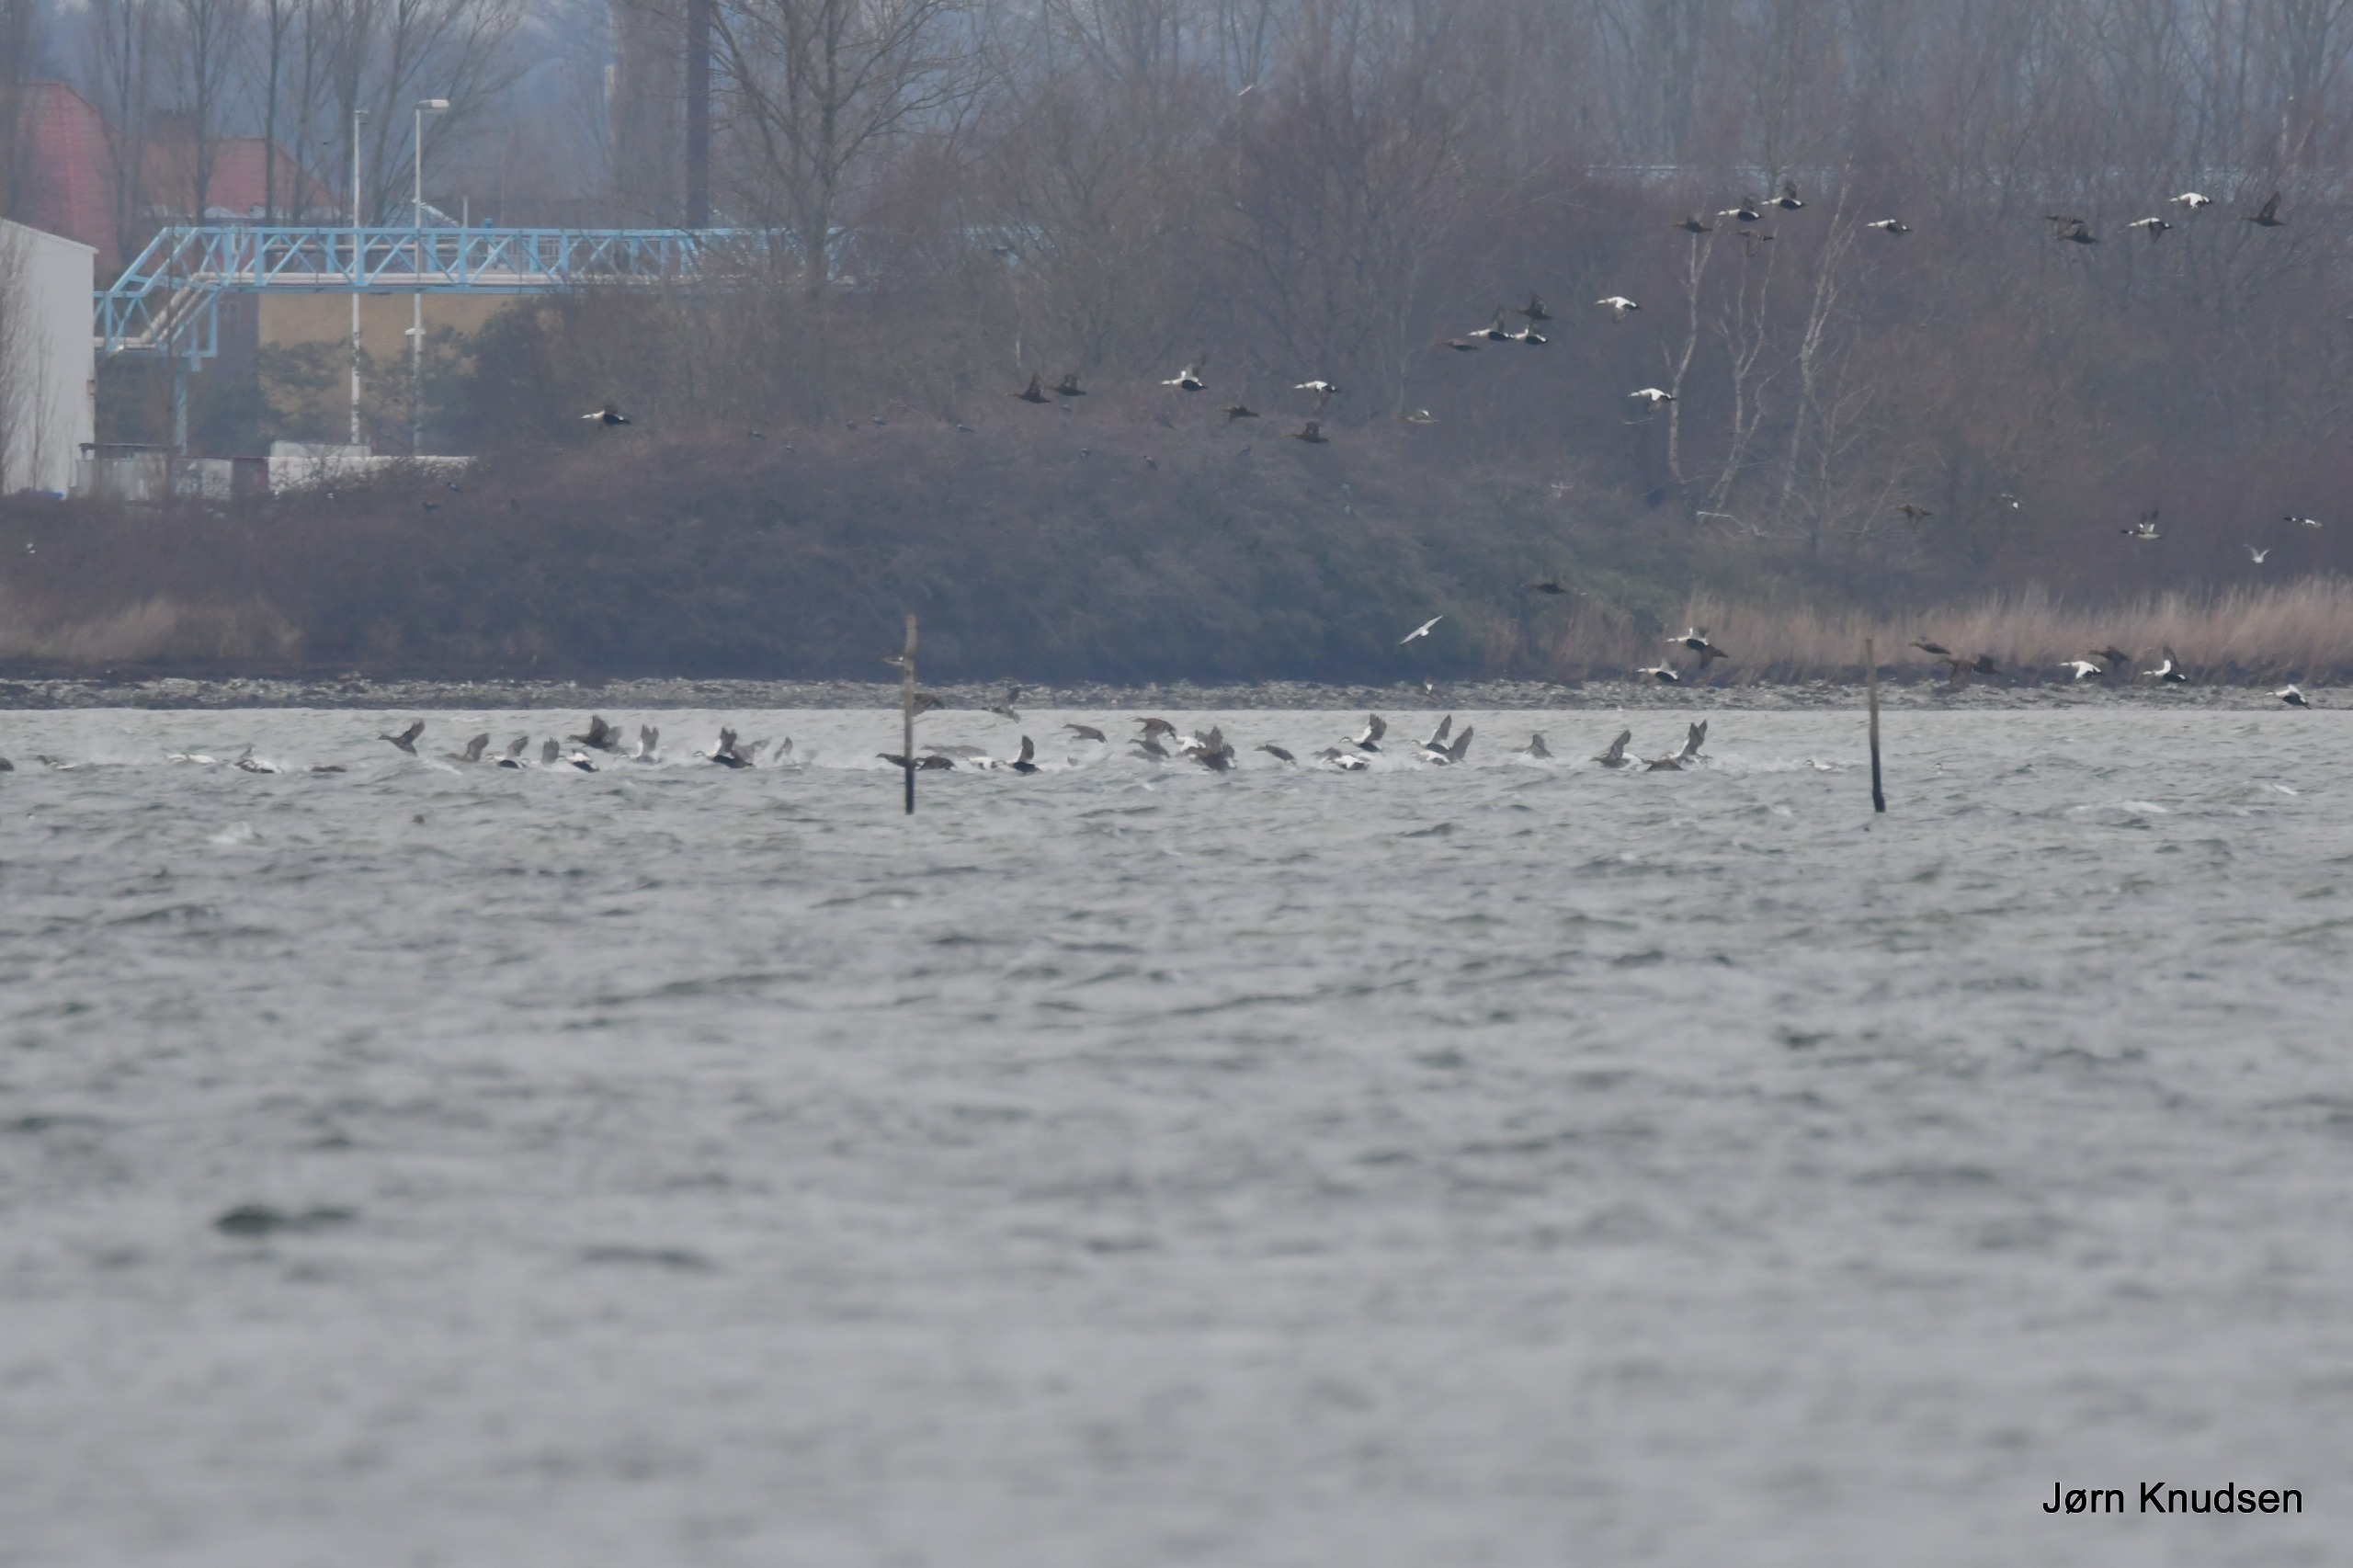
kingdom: Animalia
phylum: Chordata
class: Aves
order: Anseriformes
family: Anatidae
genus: Somateria
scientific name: Somateria mollissima
